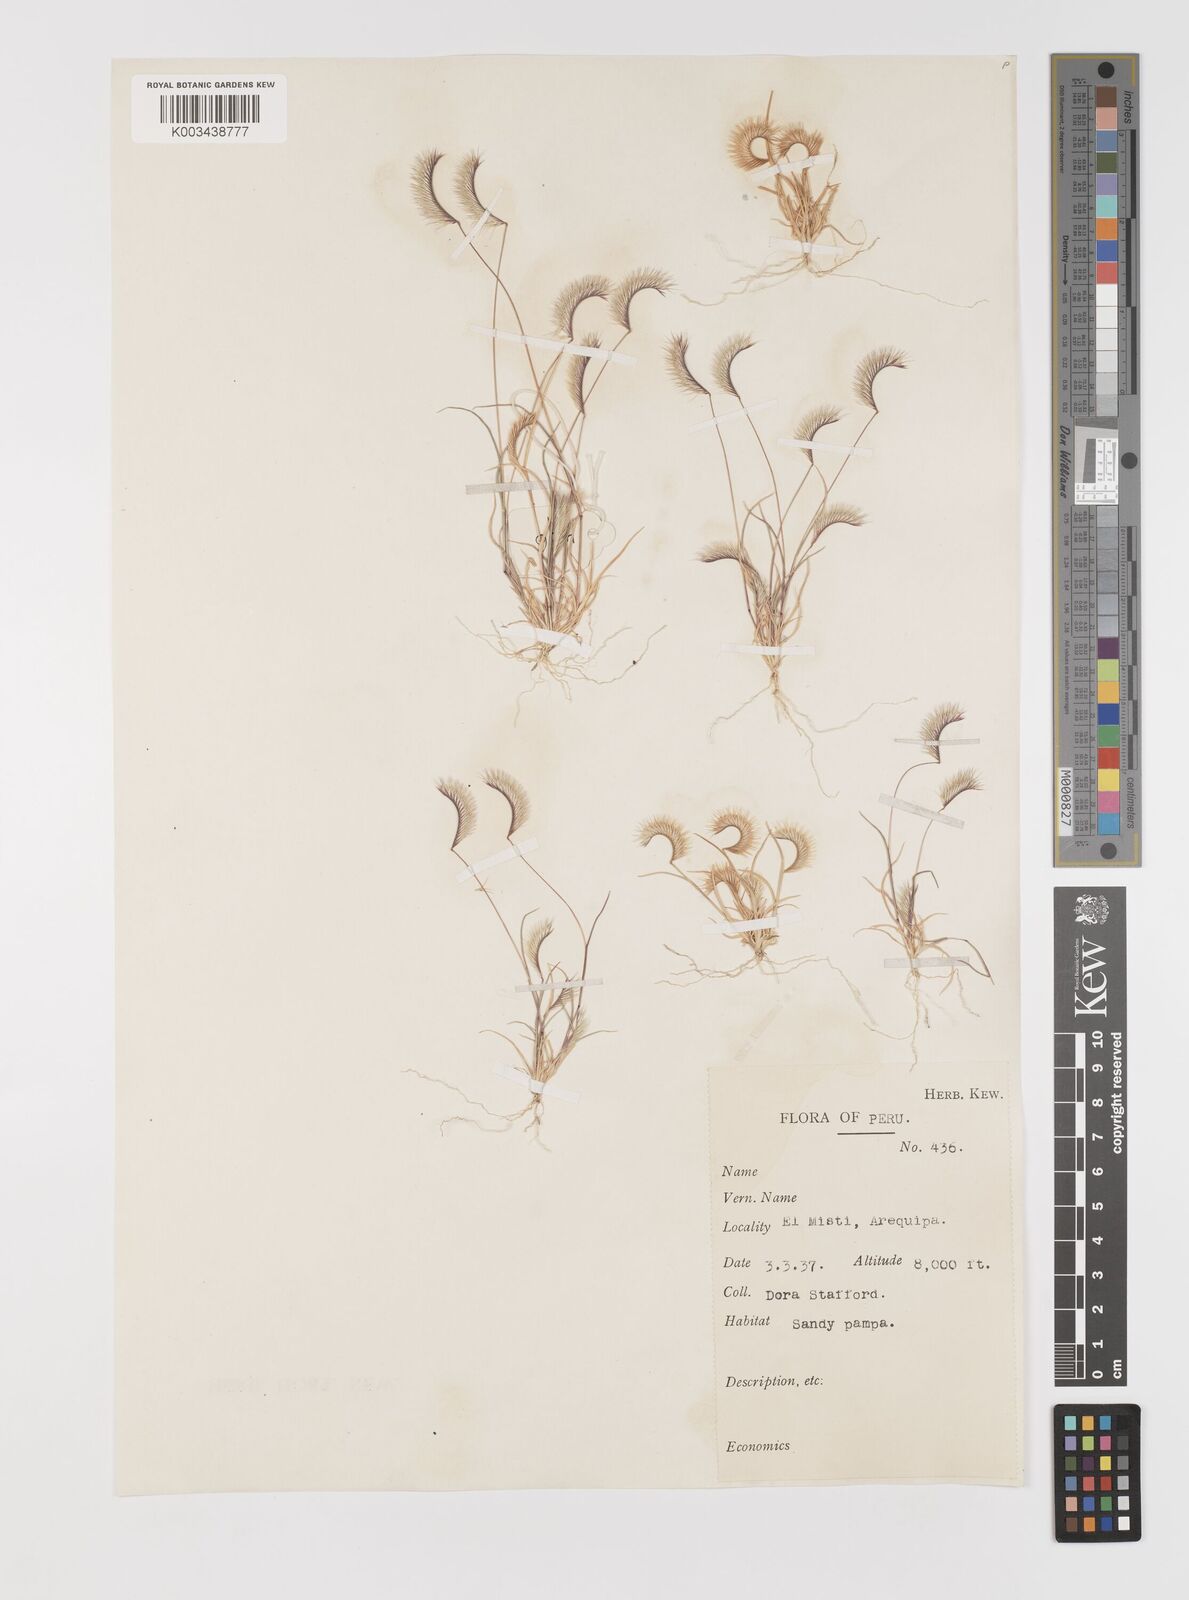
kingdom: Plantae
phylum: Tracheophyta
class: Liliopsida
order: Poales
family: Poaceae
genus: Bouteloua
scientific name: Bouteloua simplex
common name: Mat grama
